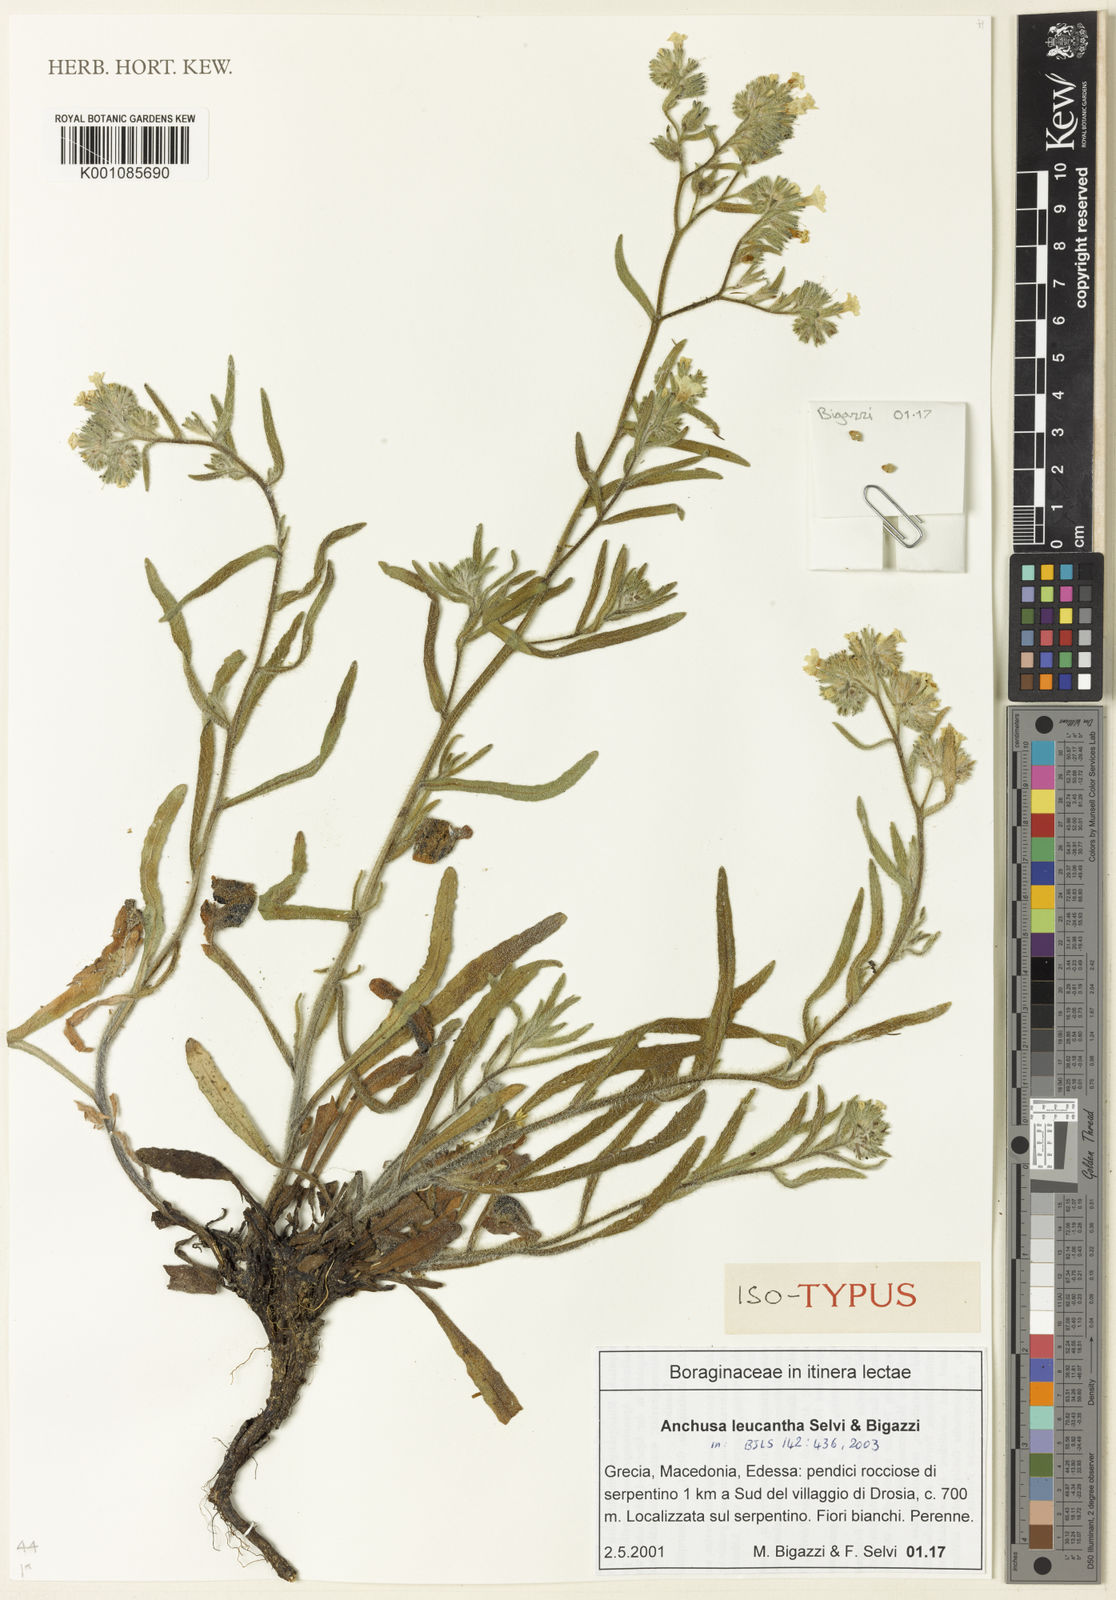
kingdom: Plantae
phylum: Tracheophyta
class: Magnoliopsida
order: Boraginales
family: Boraginaceae
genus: Anchusa
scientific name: Anchusa officinalis
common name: Alkanet
